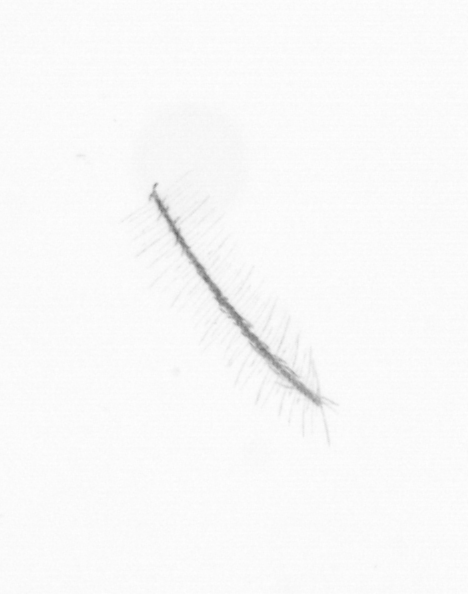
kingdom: Chromista
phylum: Ochrophyta
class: Bacillariophyceae
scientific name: Bacillariophyceae
